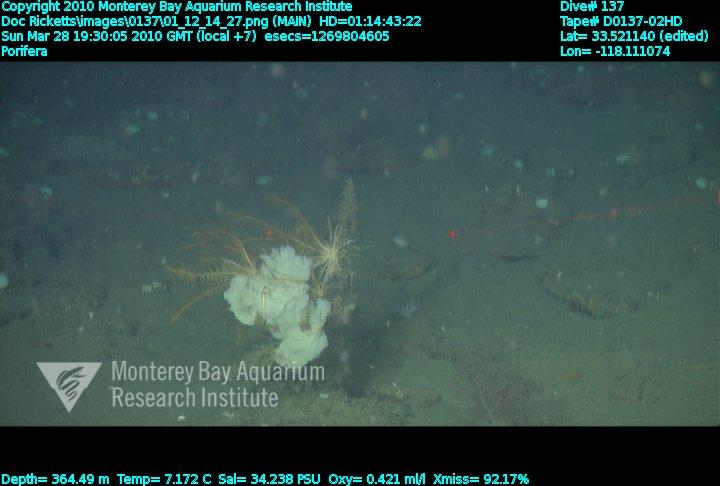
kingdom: Animalia
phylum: Porifera
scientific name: Porifera
